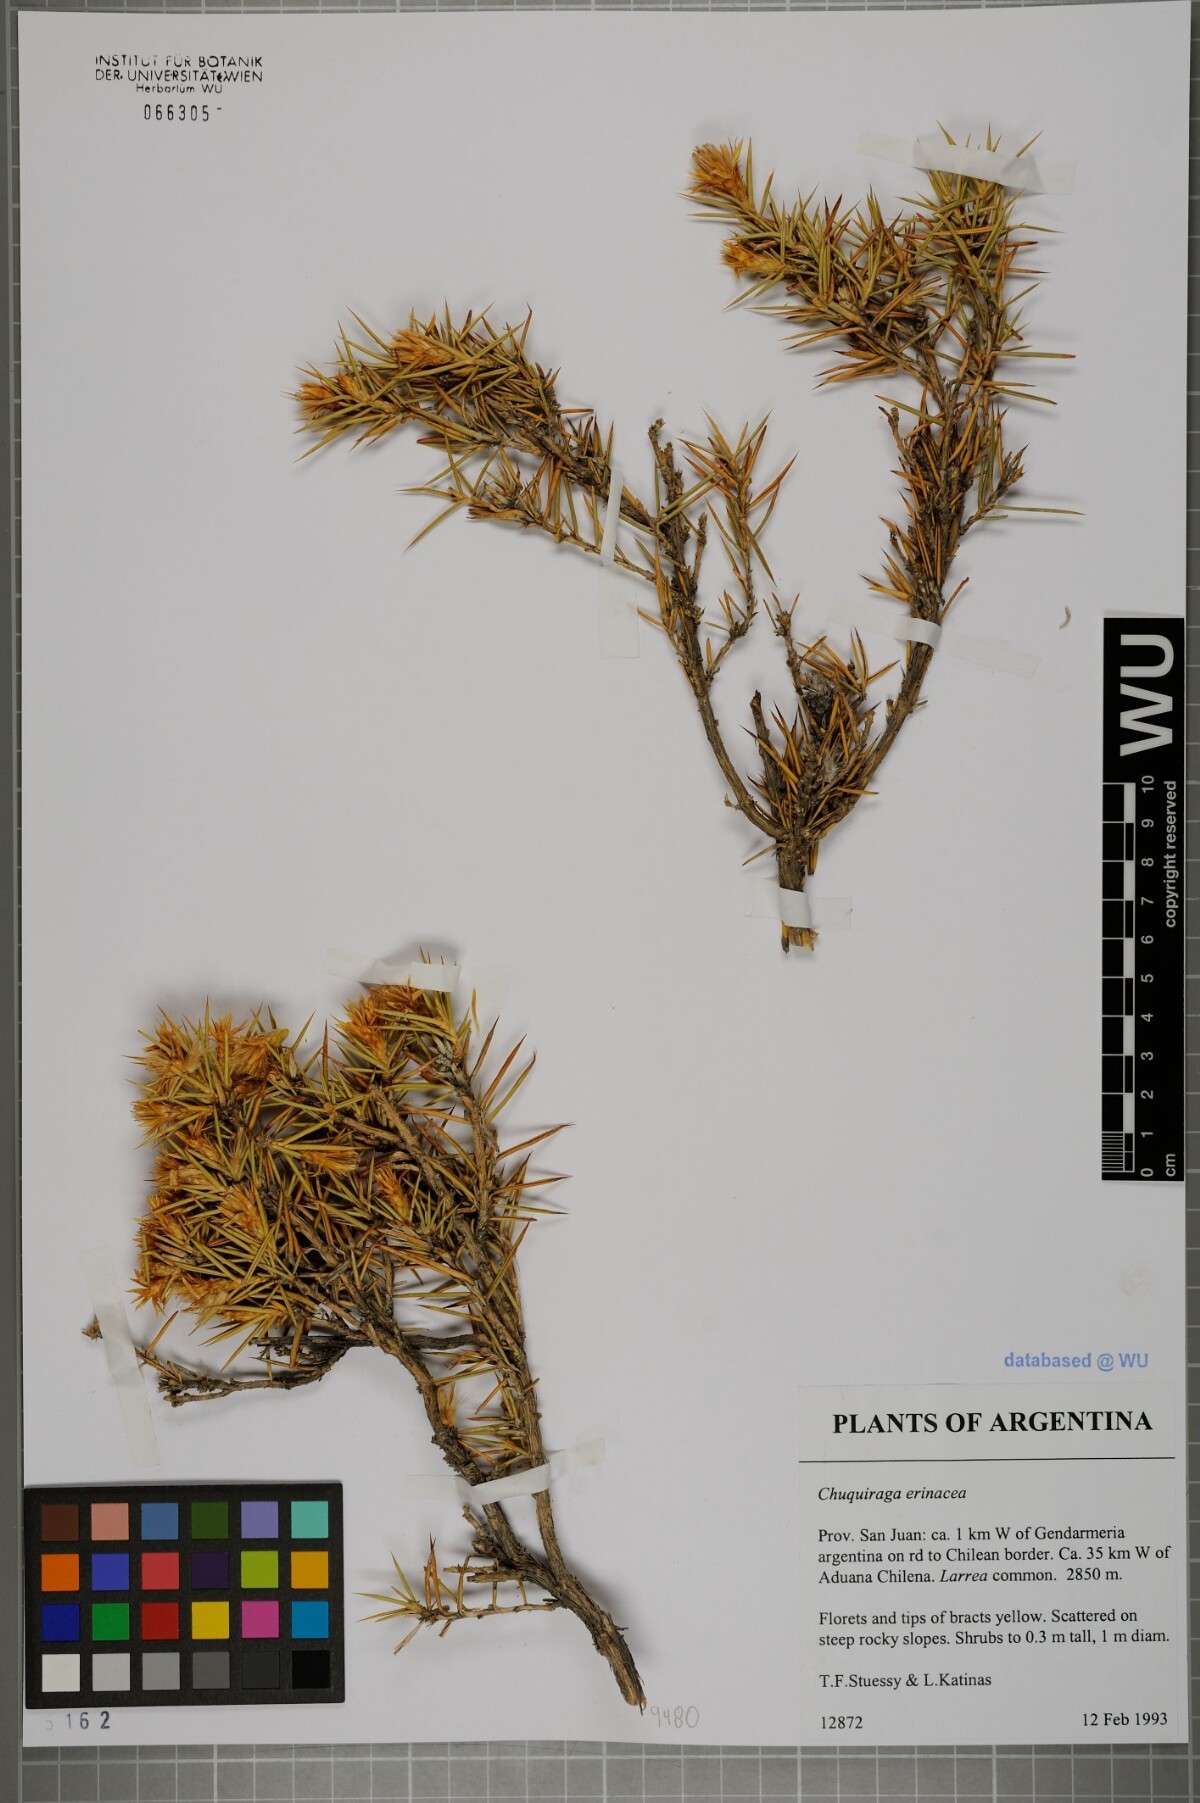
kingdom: Plantae
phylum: Tracheophyta
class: Magnoliopsida
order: Asterales
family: Asteraceae
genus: Chuquiraga
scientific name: Chuquiraga erinacea
